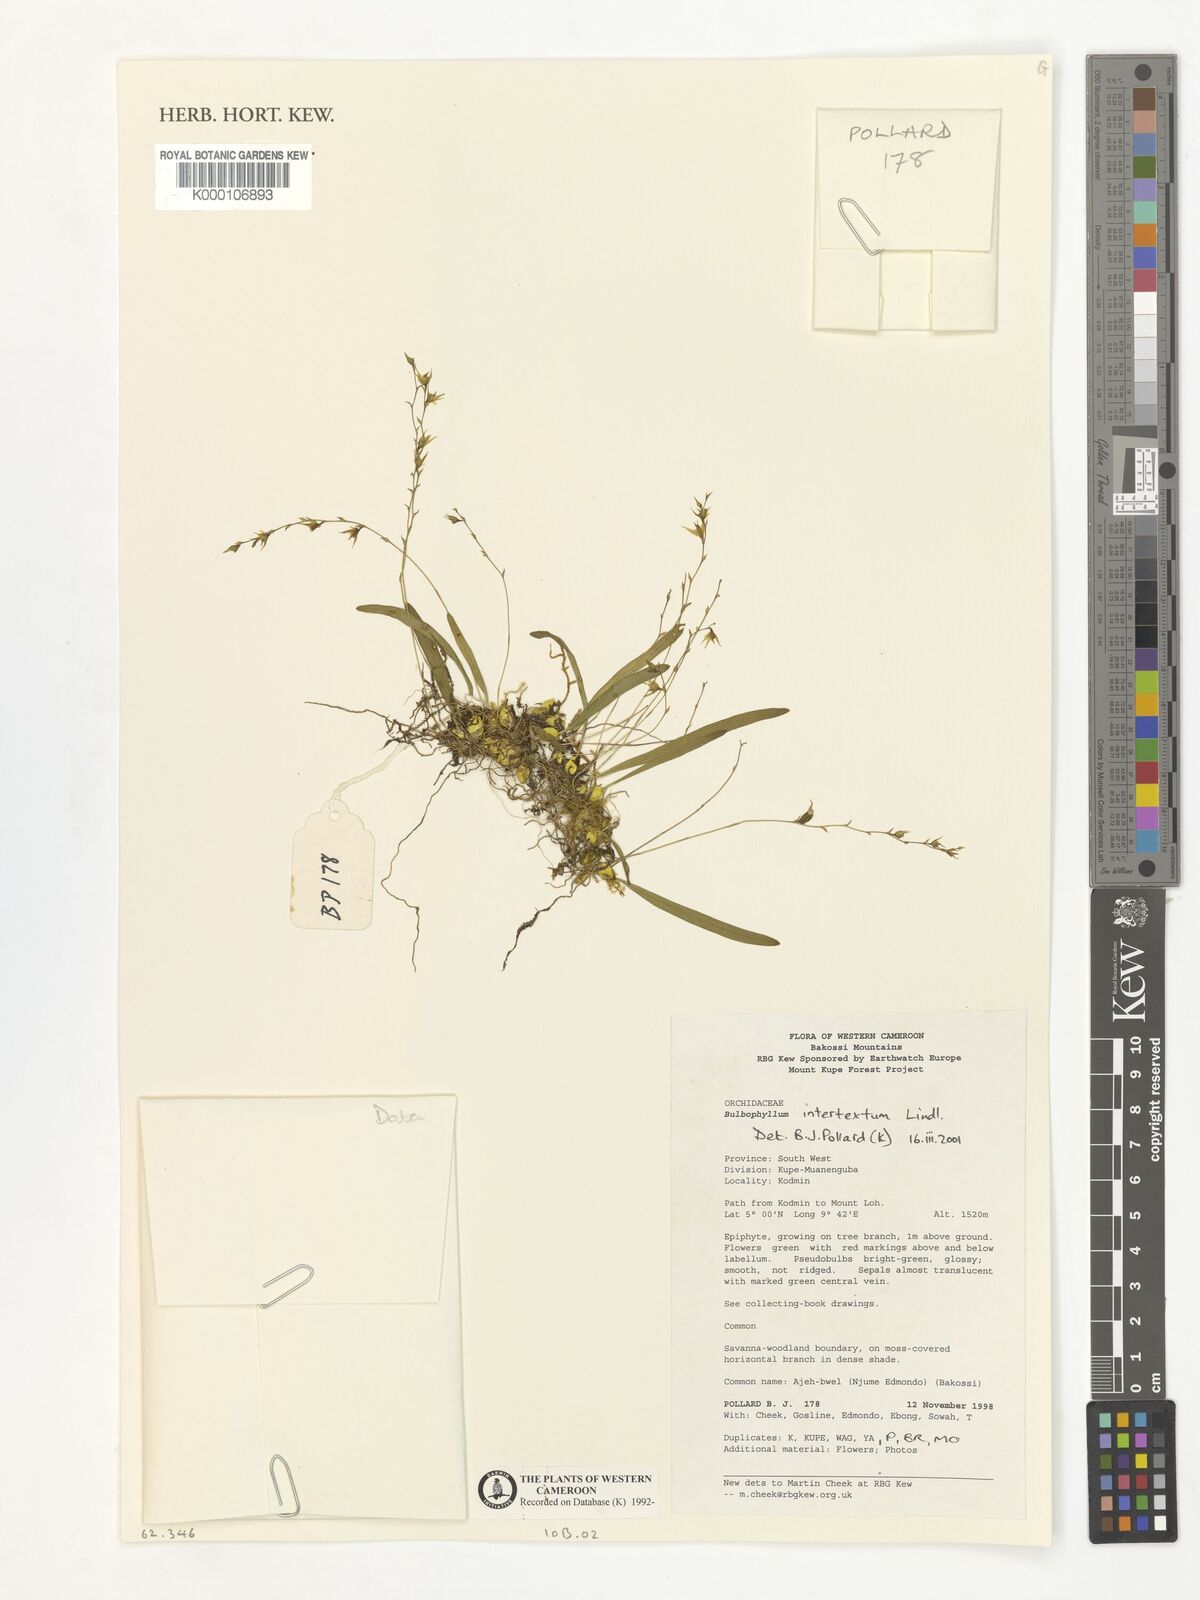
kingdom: Plantae
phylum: Tracheophyta
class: Liliopsida
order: Asparagales
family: Orchidaceae
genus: Bulbophyllum
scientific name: Bulbophyllum intertextum
